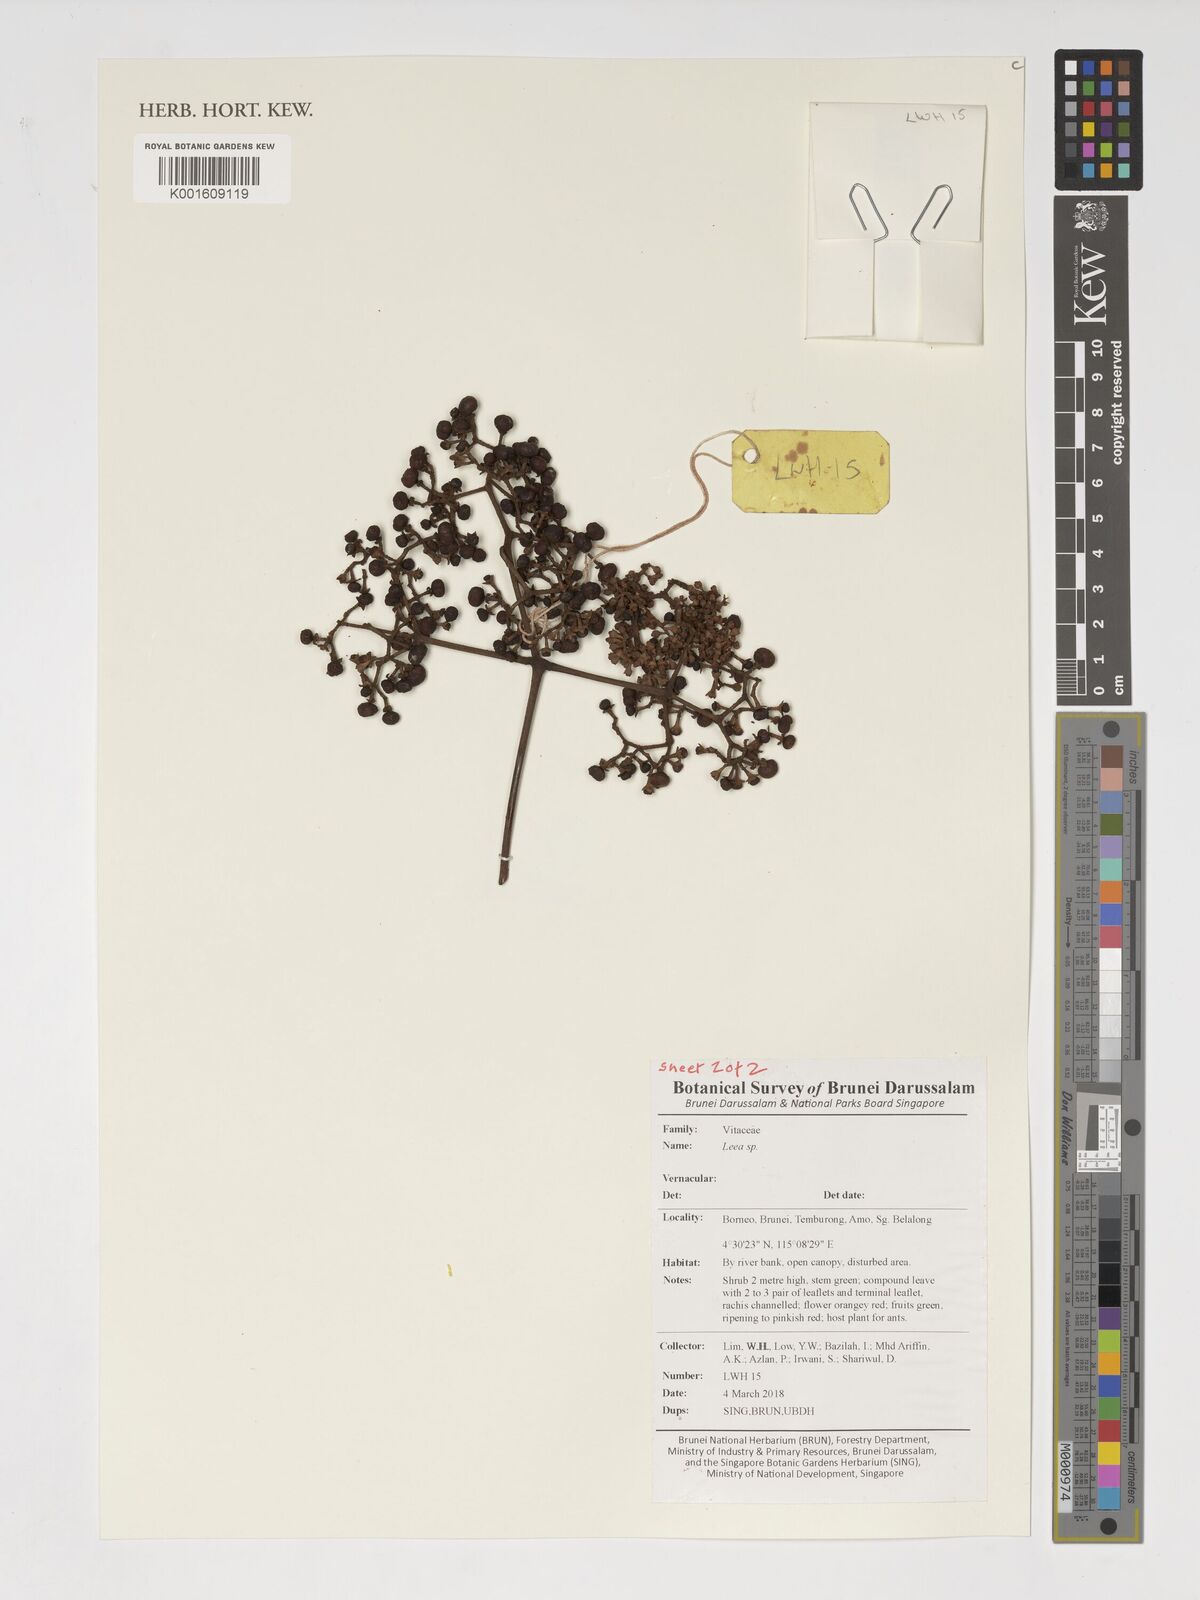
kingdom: Plantae
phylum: Tracheophyta
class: Magnoliopsida
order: Vitales
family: Vitaceae
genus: Leea
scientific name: Leea
